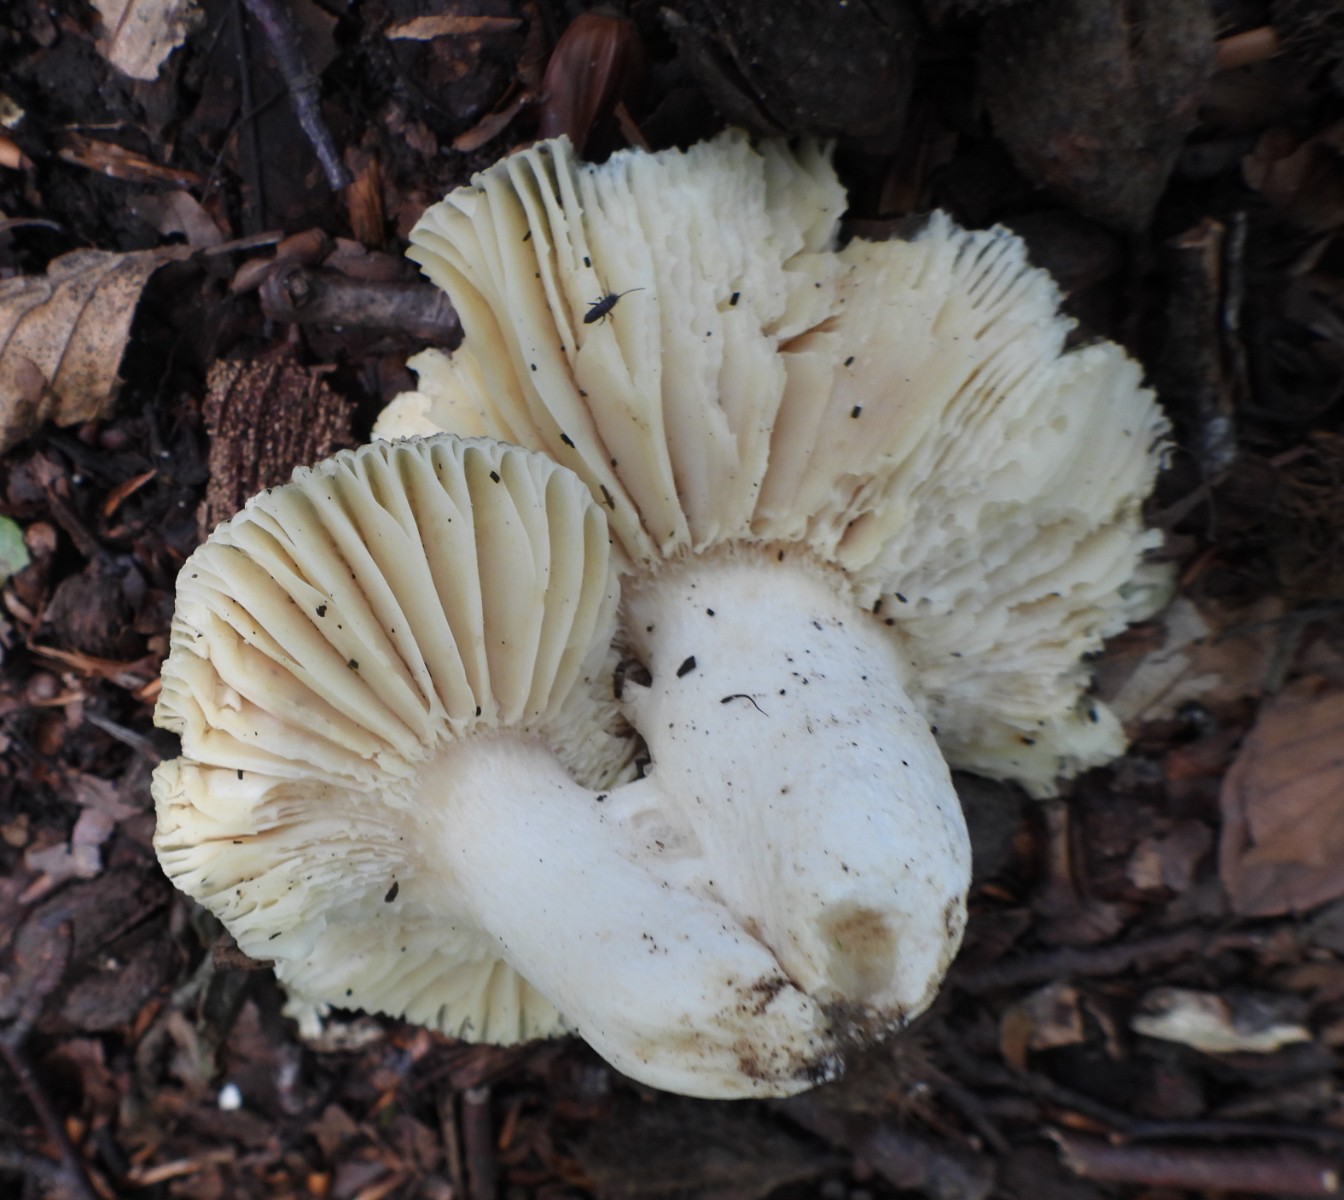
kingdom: Fungi
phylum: Basidiomycota
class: Agaricomycetes
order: Russulales
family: Russulaceae
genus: Russula
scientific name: Russula virescens
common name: spanskgrøn skørhat
